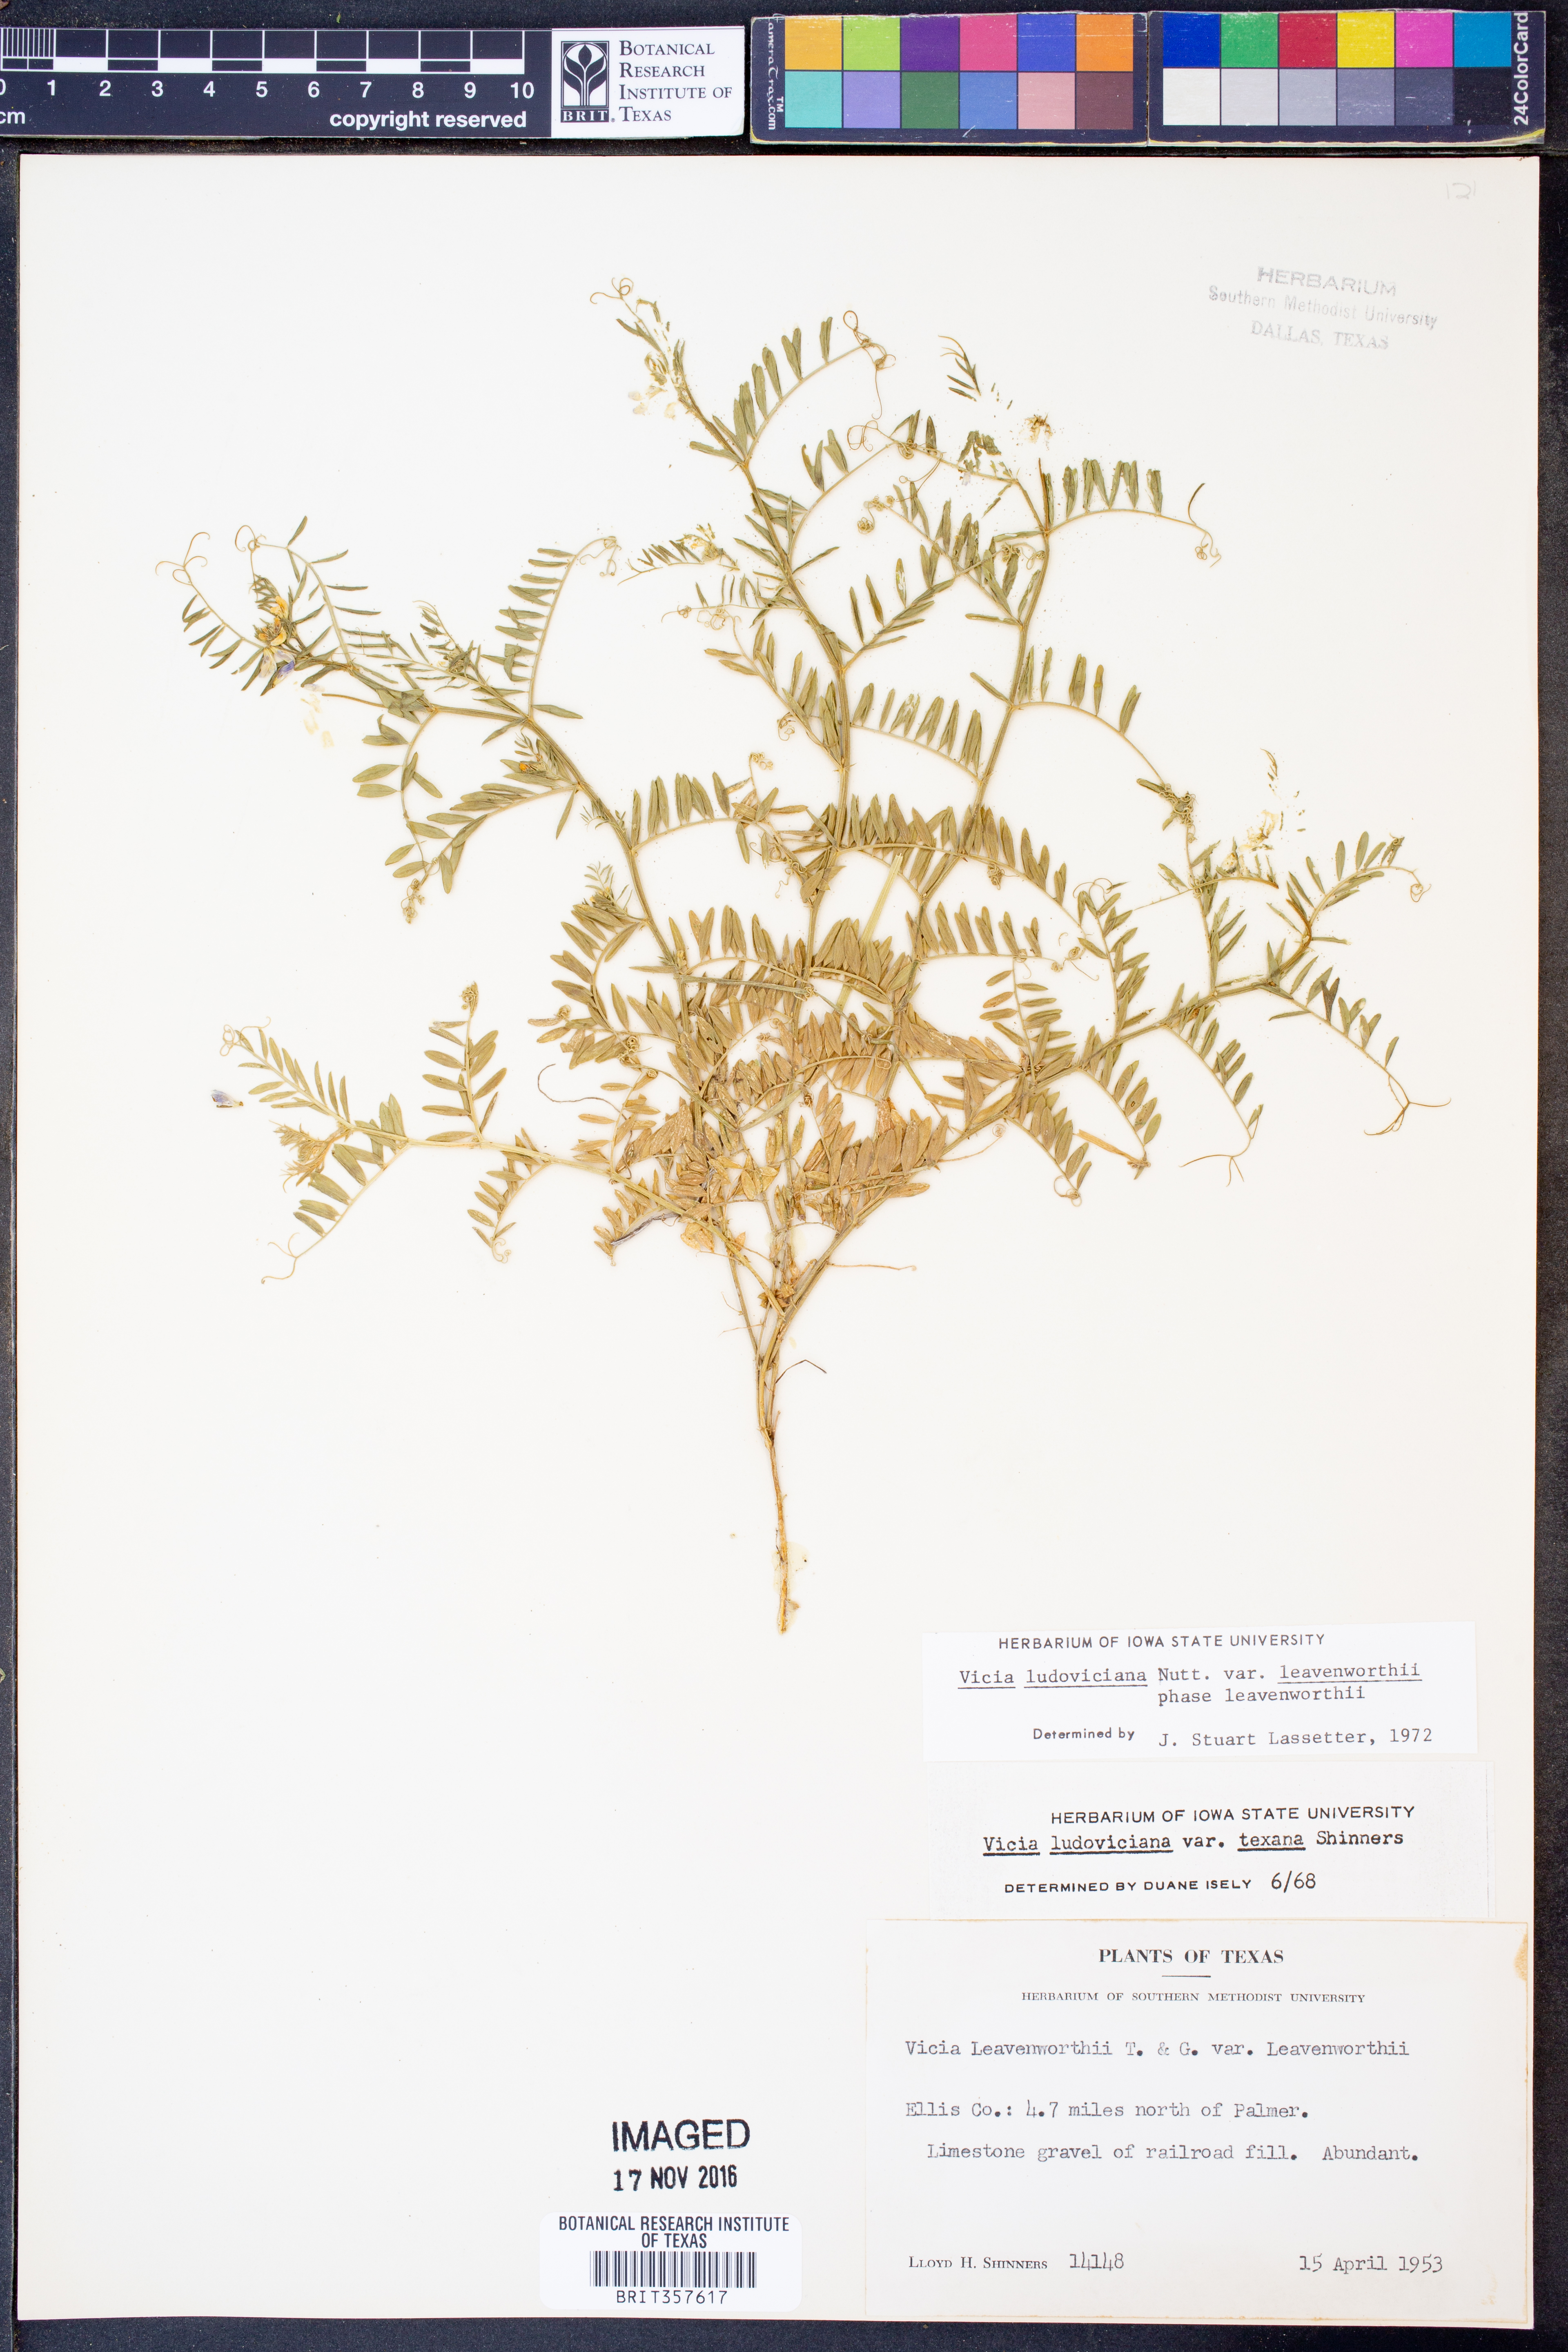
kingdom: Plantae
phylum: Tracheophyta
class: Magnoliopsida
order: Fabales
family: Fabaceae
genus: Vicia
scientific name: Vicia ludoviciana
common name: Louisiana vetch
